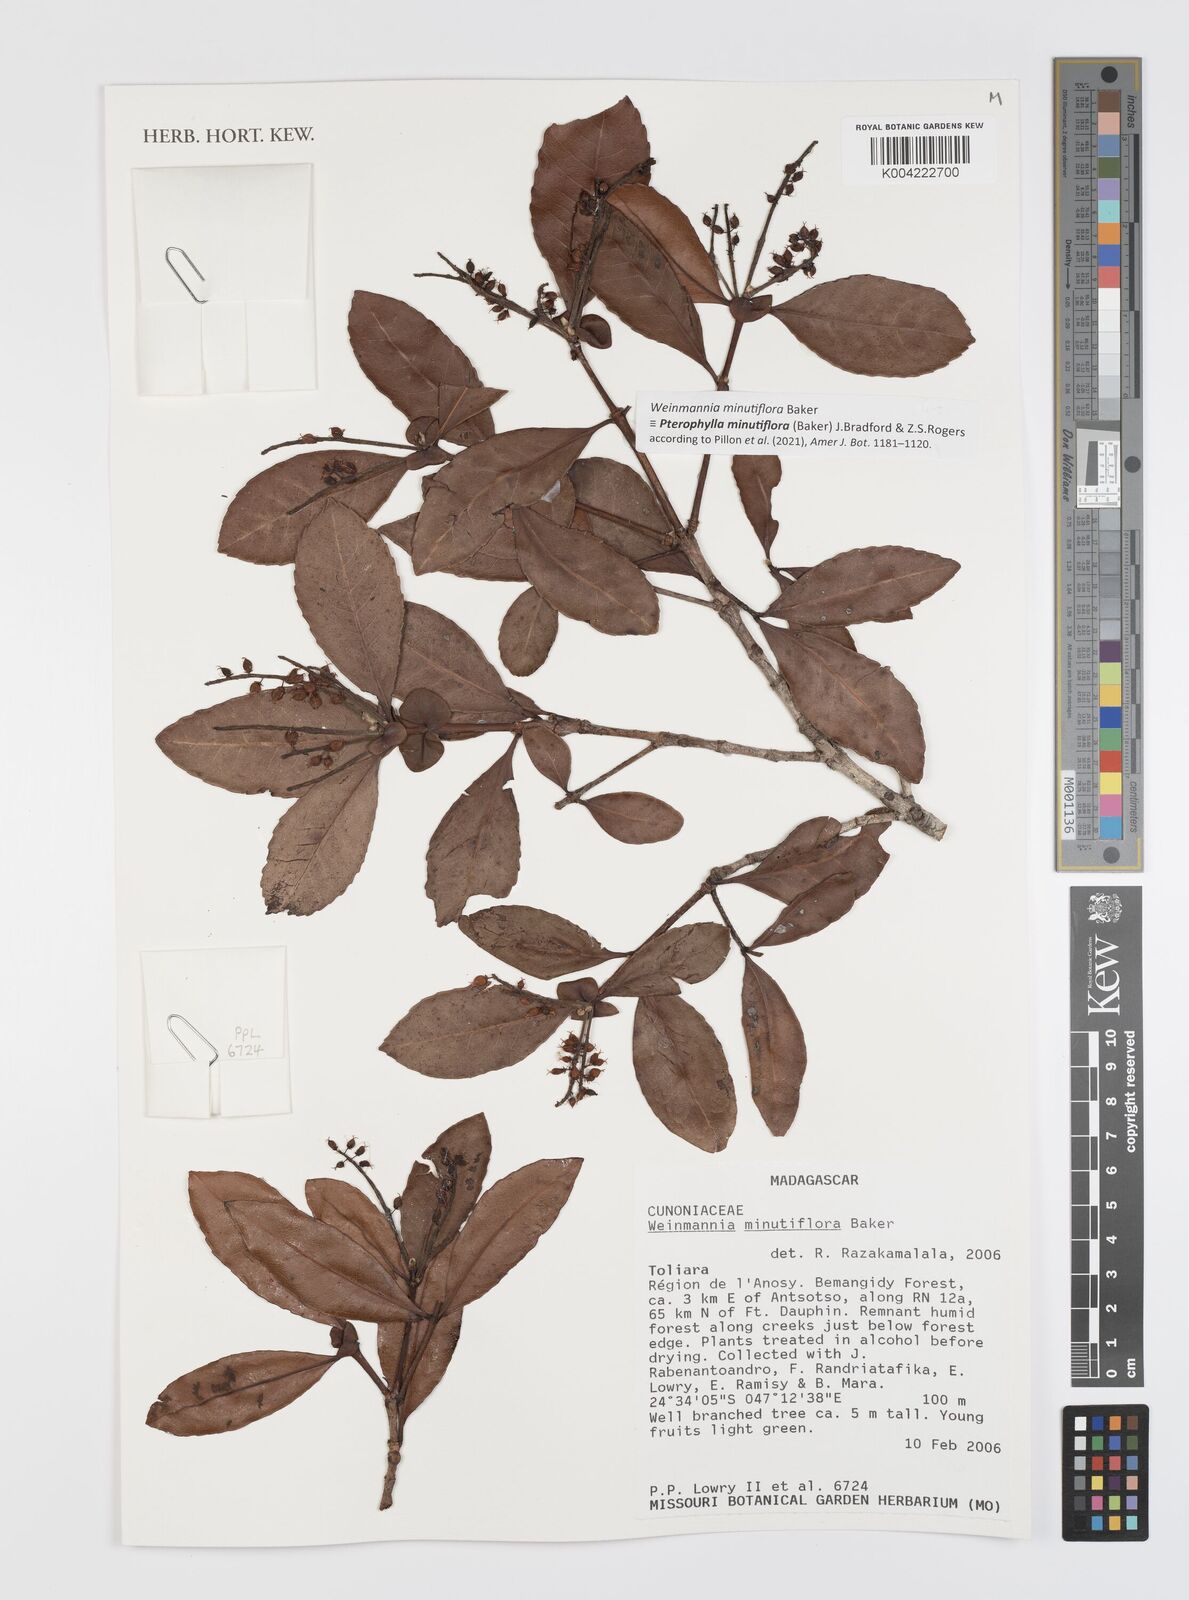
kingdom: Plantae
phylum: Tracheophyta
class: Magnoliopsida
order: Oxalidales
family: Cunoniaceae
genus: Pterophylla
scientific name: Pterophylla
